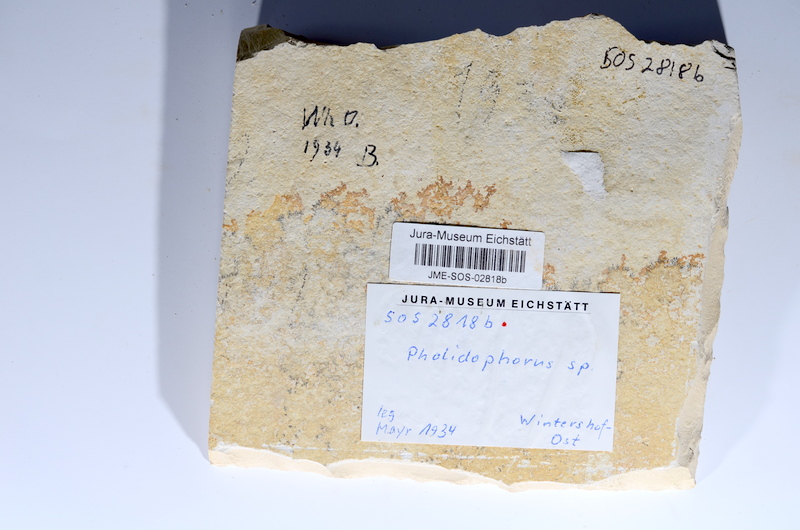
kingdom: Animalia
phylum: Chordata
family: Ankylophoridae
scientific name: Ankylophoridae
